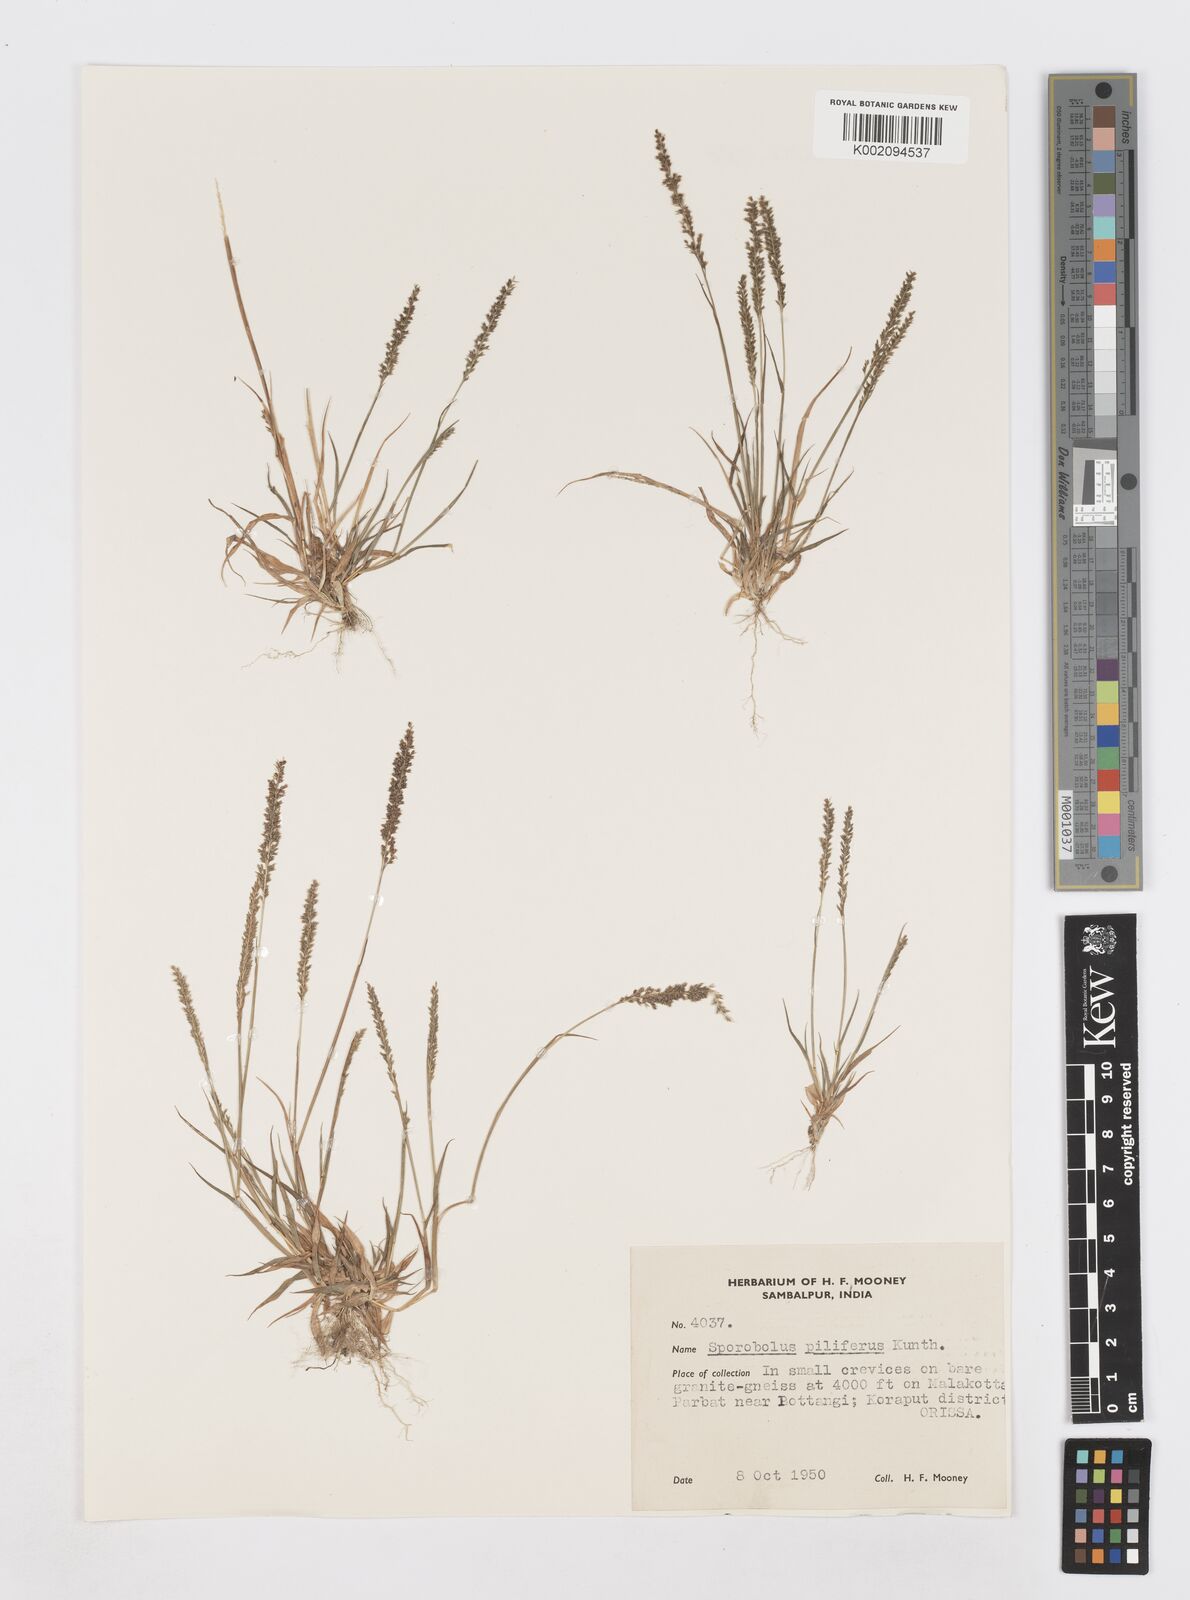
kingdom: Plantae
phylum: Tracheophyta
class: Liliopsida
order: Poales
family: Poaceae
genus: Sporobolus
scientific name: Sporobolus pilifer
